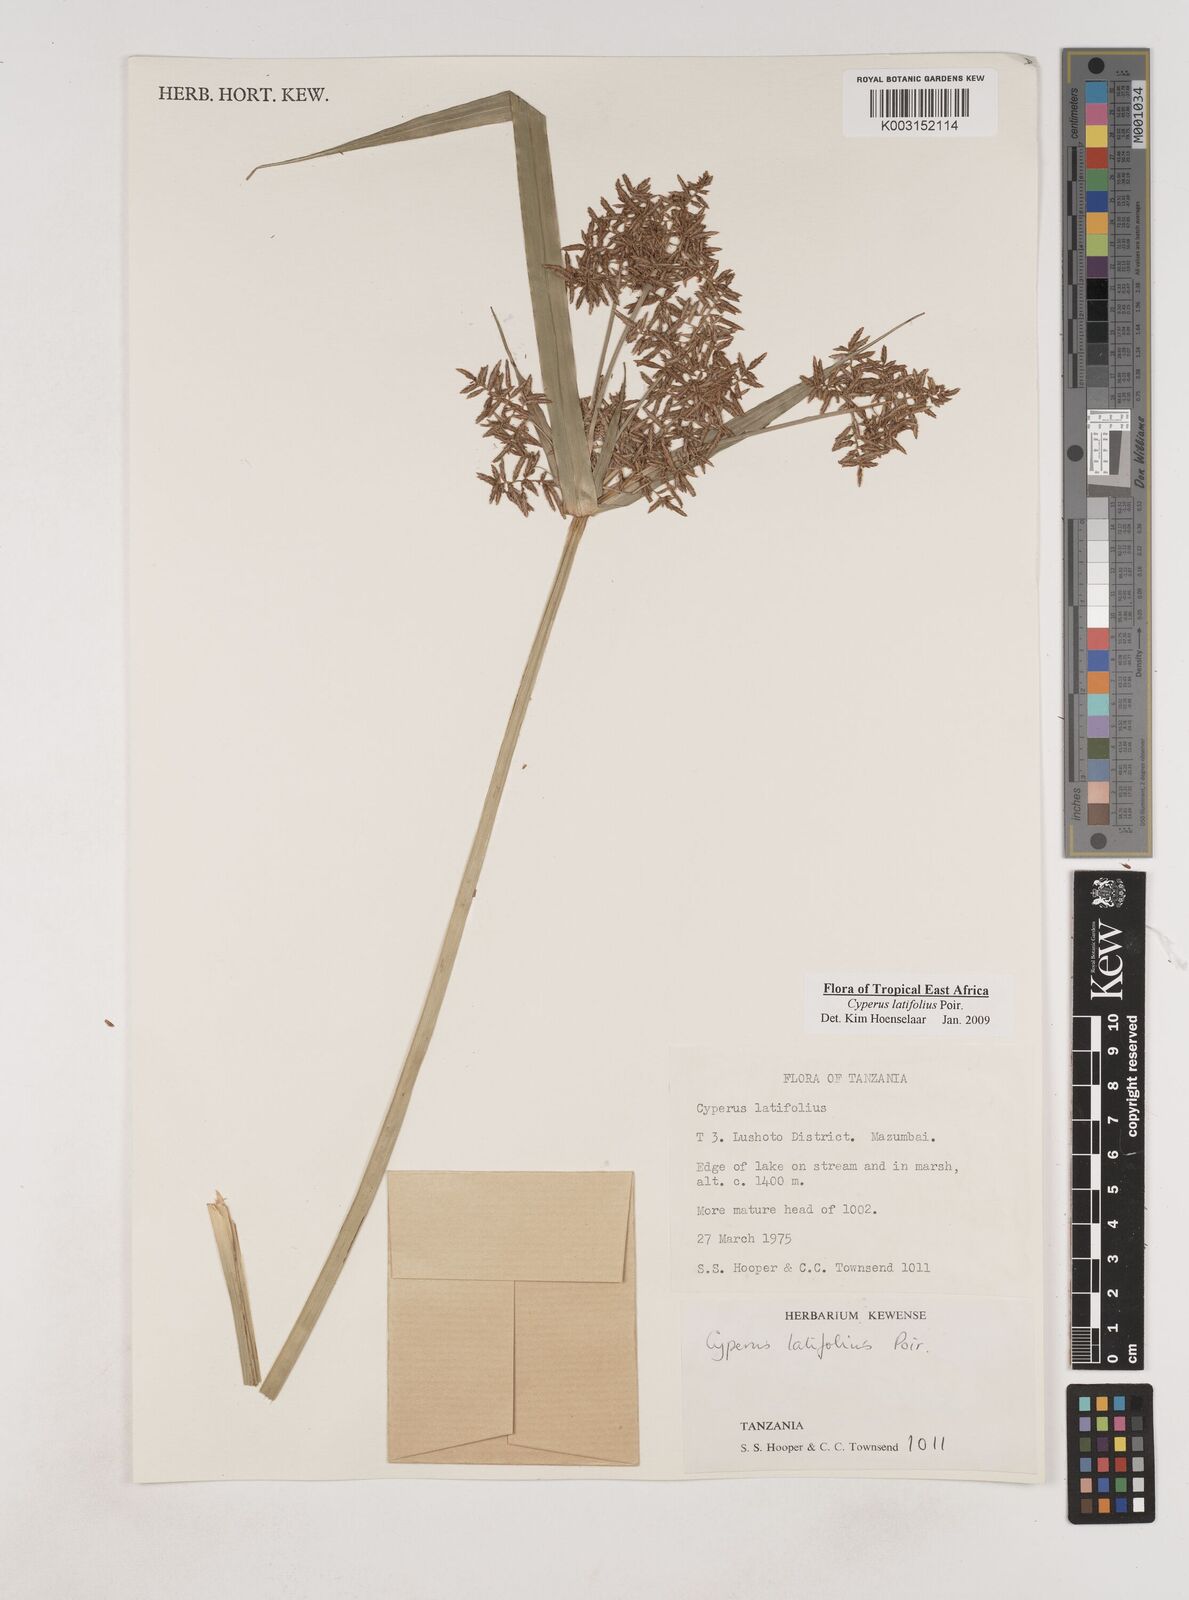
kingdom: Plantae
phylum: Tracheophyta
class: Liliopsida
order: Poales
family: Cyperaceae
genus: Cyperus
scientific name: Cyperus latifolius
